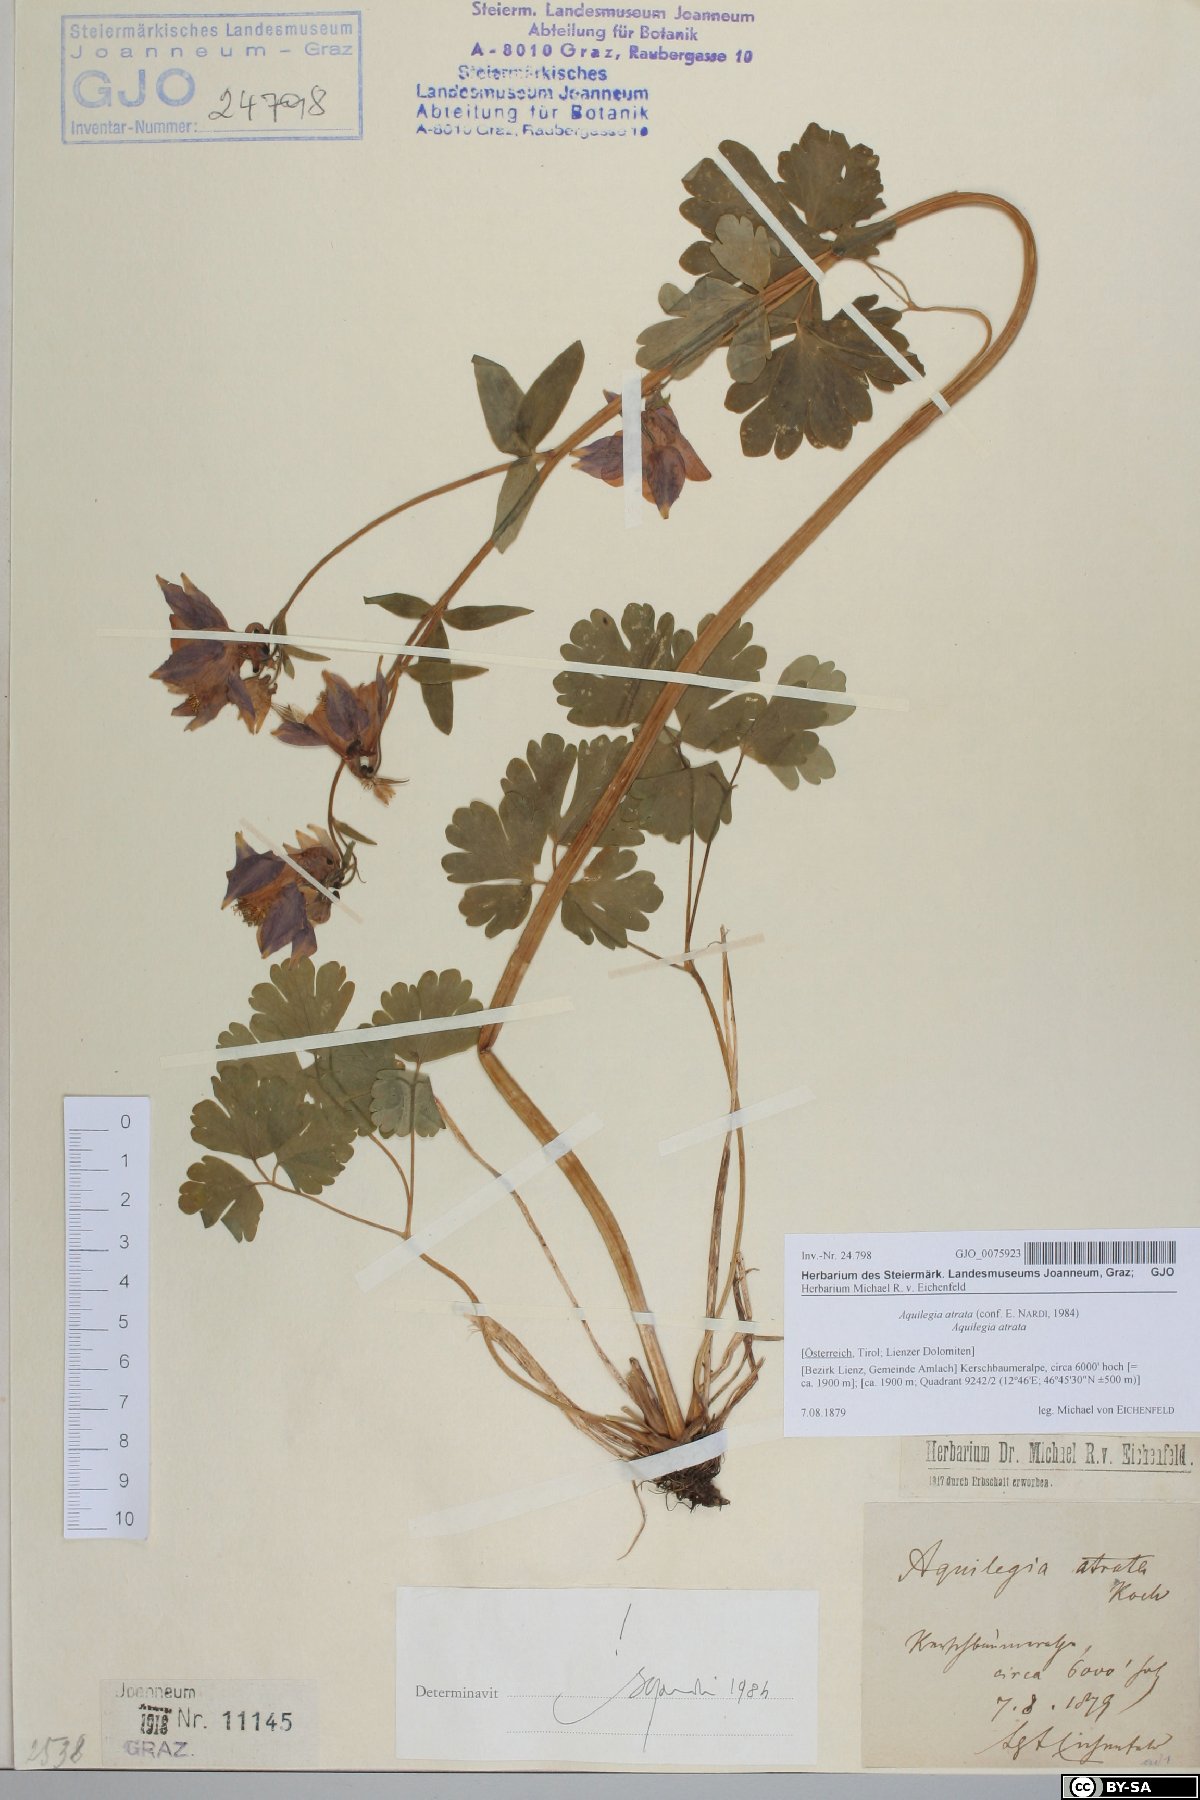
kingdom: Plantae
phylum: Tracheophyta
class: Magnoliopsida
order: Ranunculales
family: Ranunculaceae
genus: Aquilegia
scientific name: Aquilegia atrata
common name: Dark columbine
